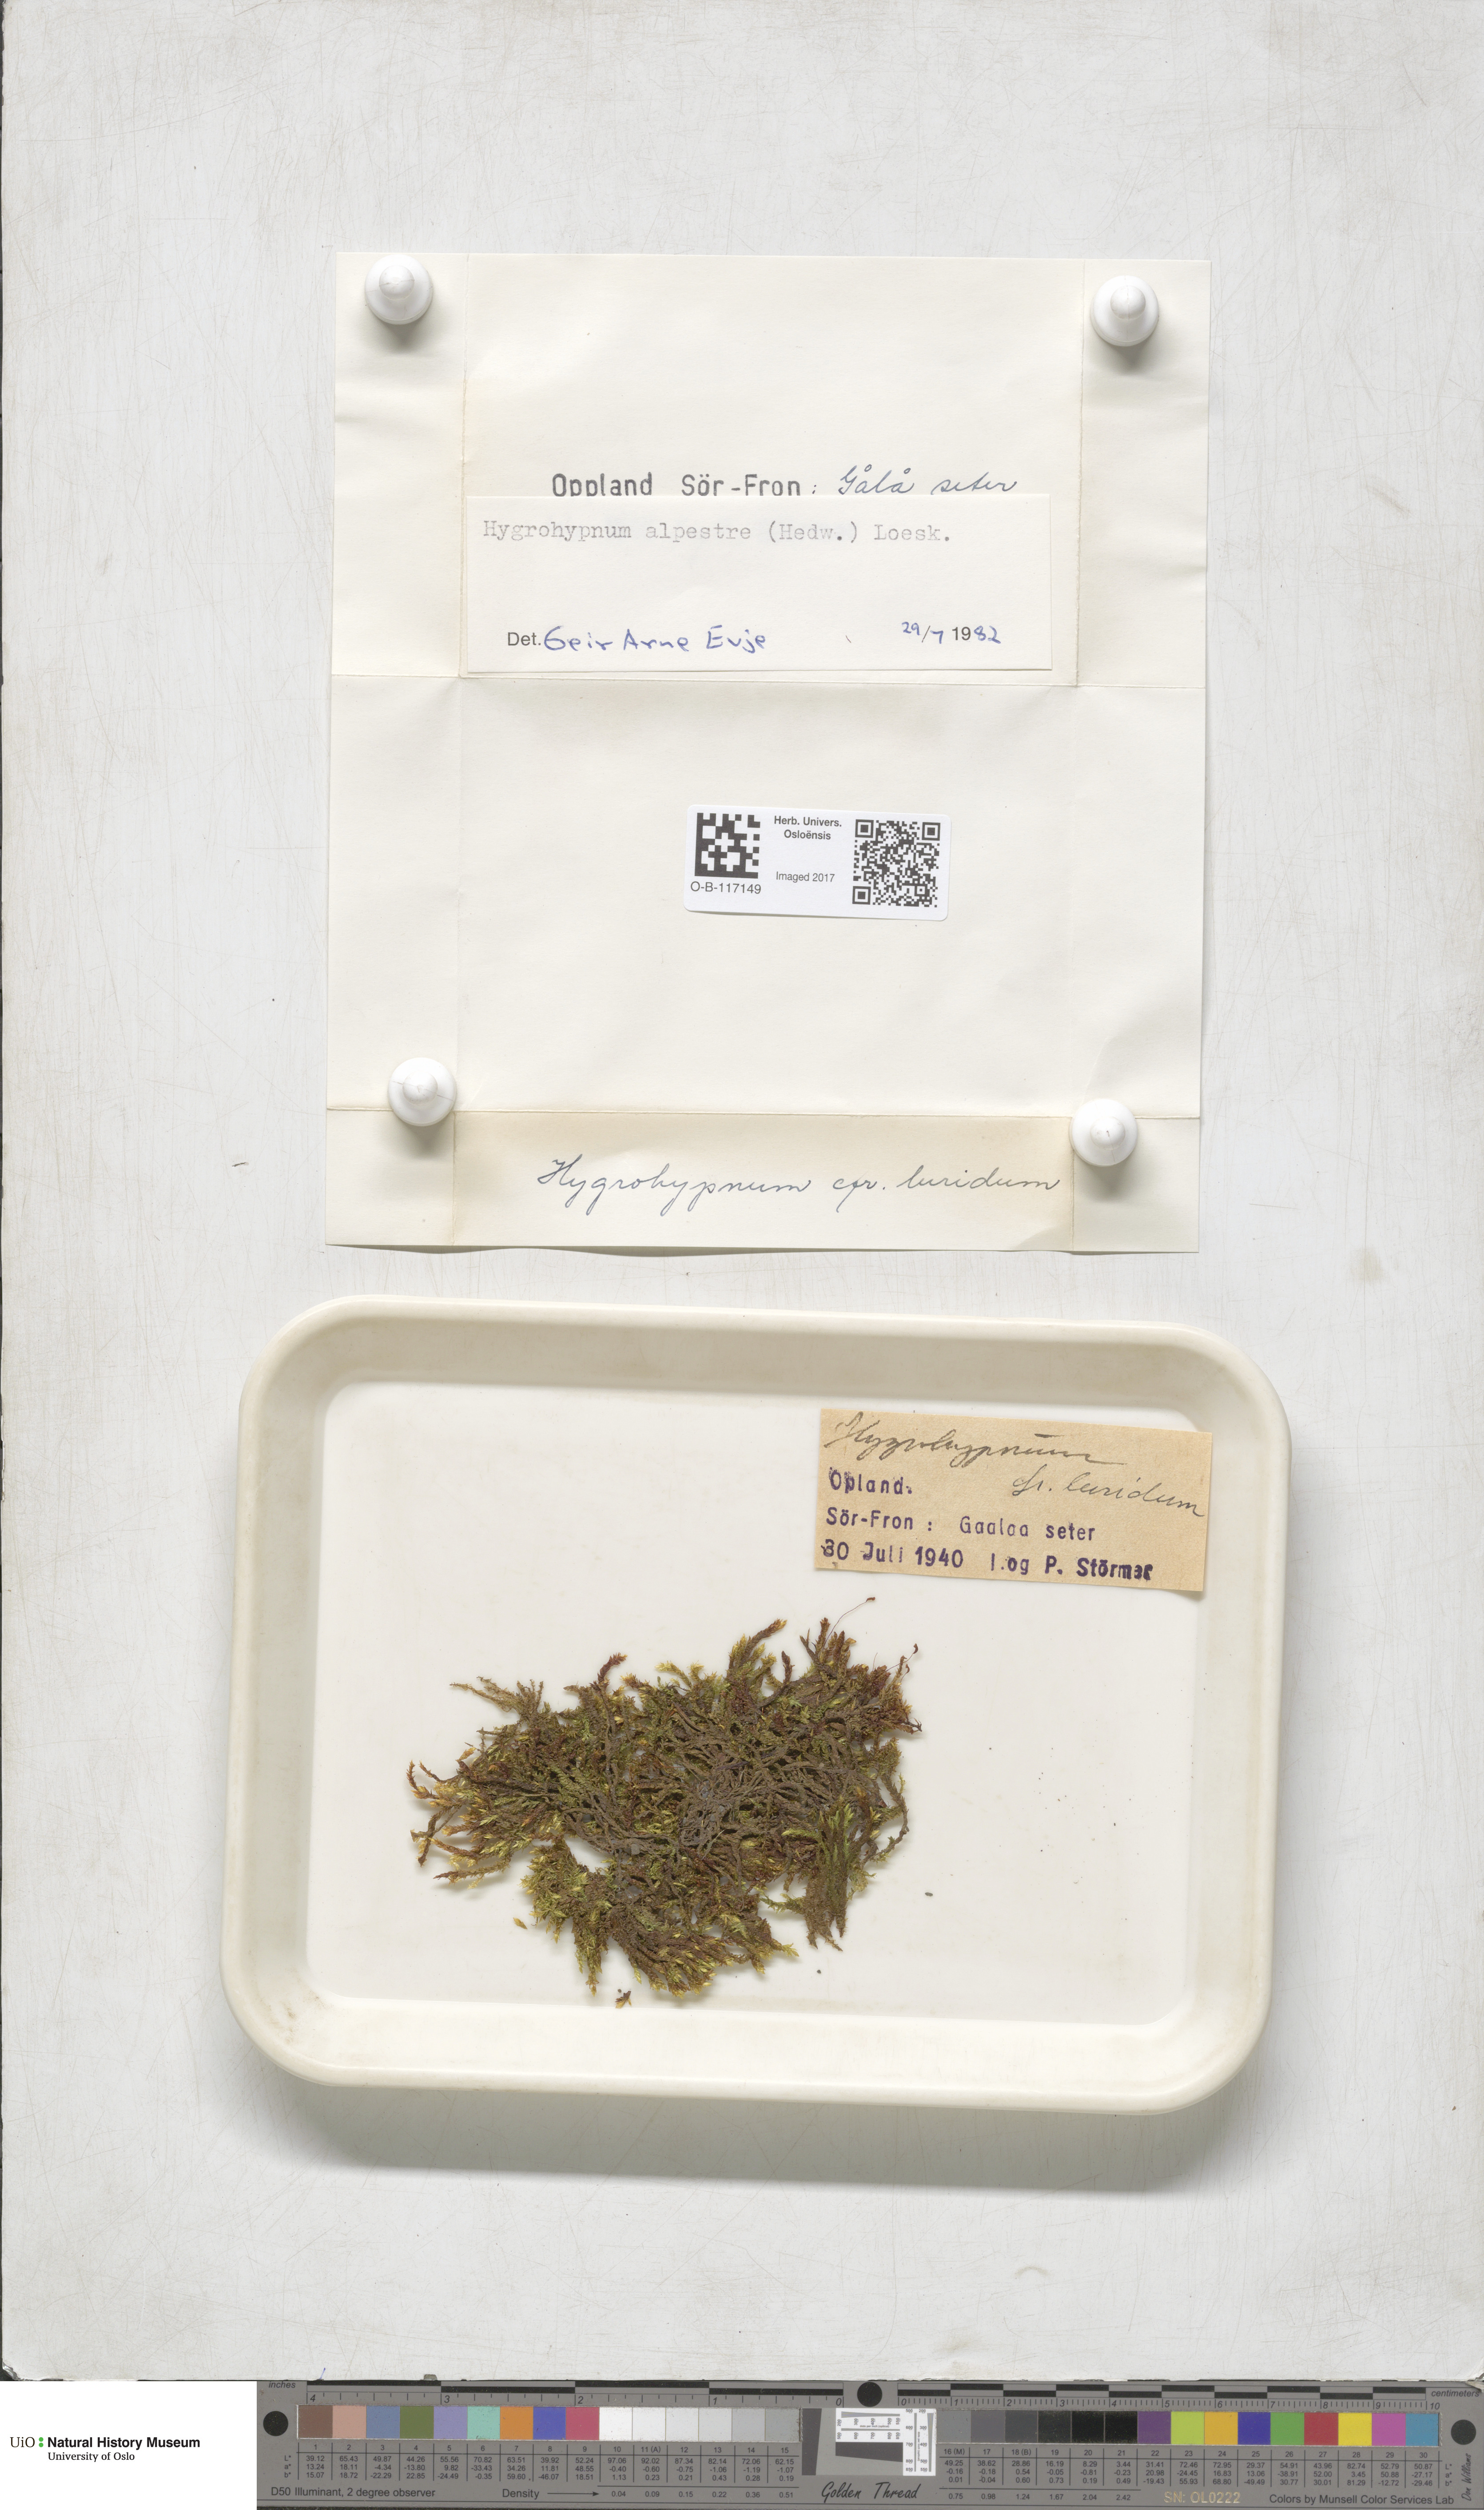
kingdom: Plantae
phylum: Bryophyta
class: Bryopsida
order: Hypnales
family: Amblystegiaceae
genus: Platyhypnum
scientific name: Platyhypnum alpestre
